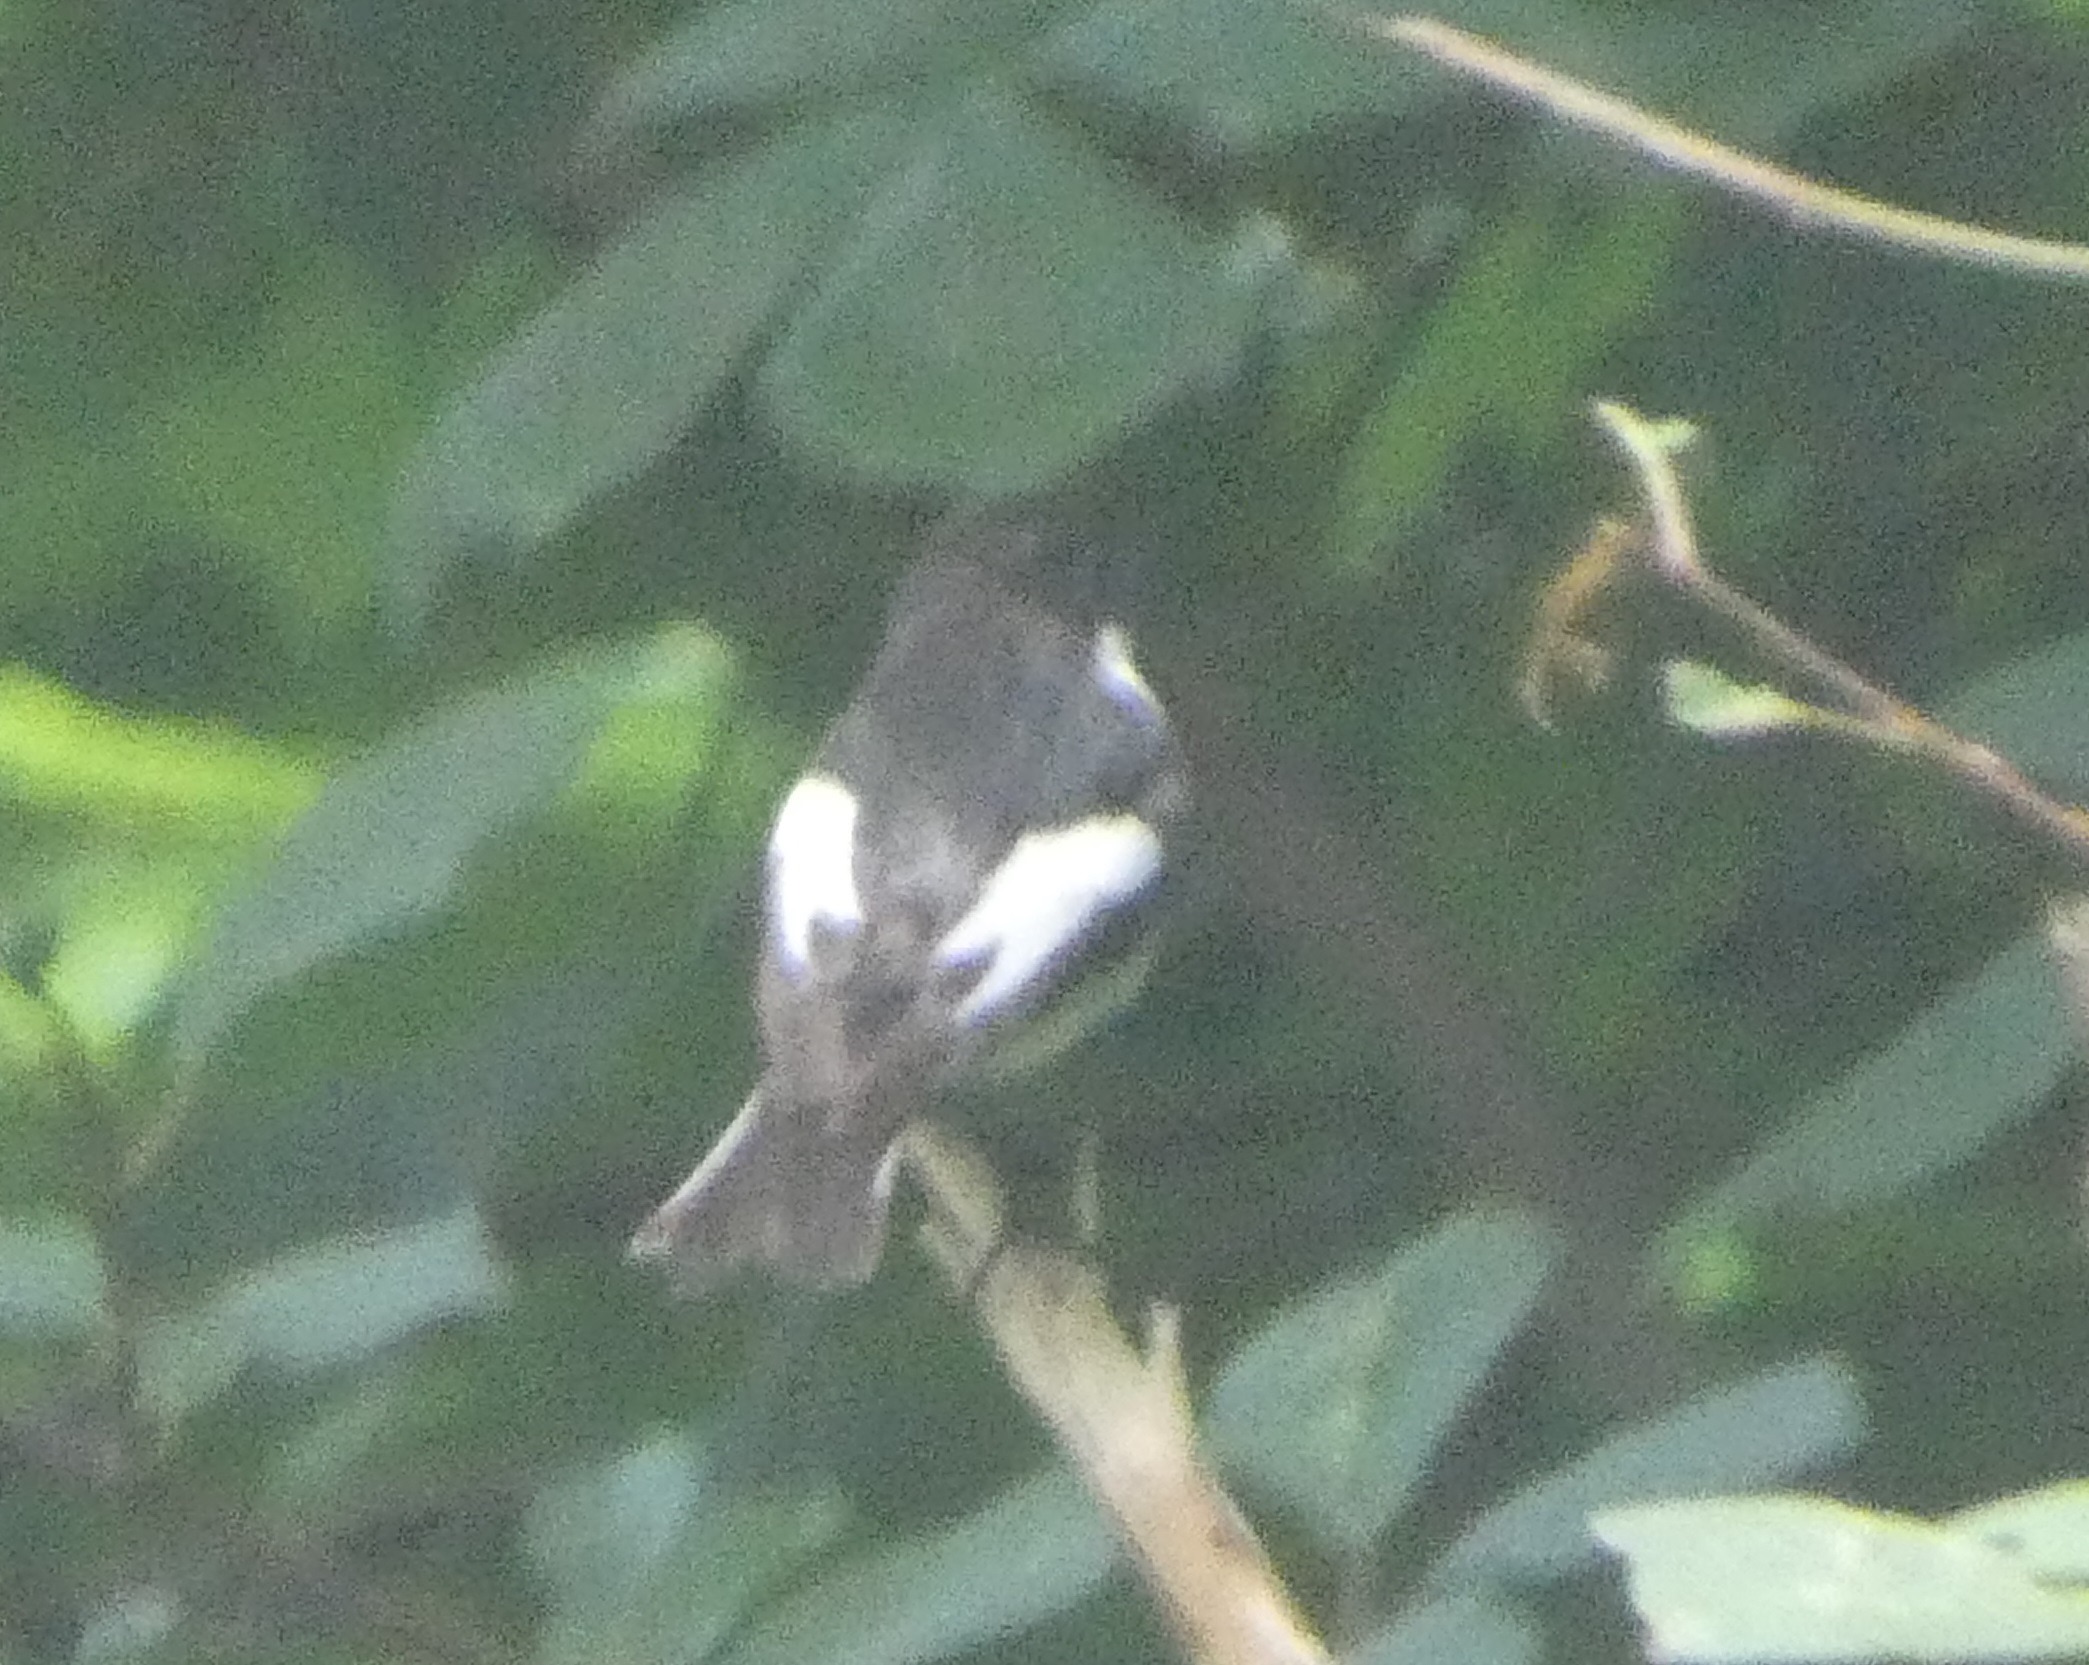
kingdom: Animalia
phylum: Chordata
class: Aves
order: Passeriformes
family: Muscicapidae
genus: Ficedula
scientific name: Ficedula hypoleuca
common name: Broget fluesnapper
